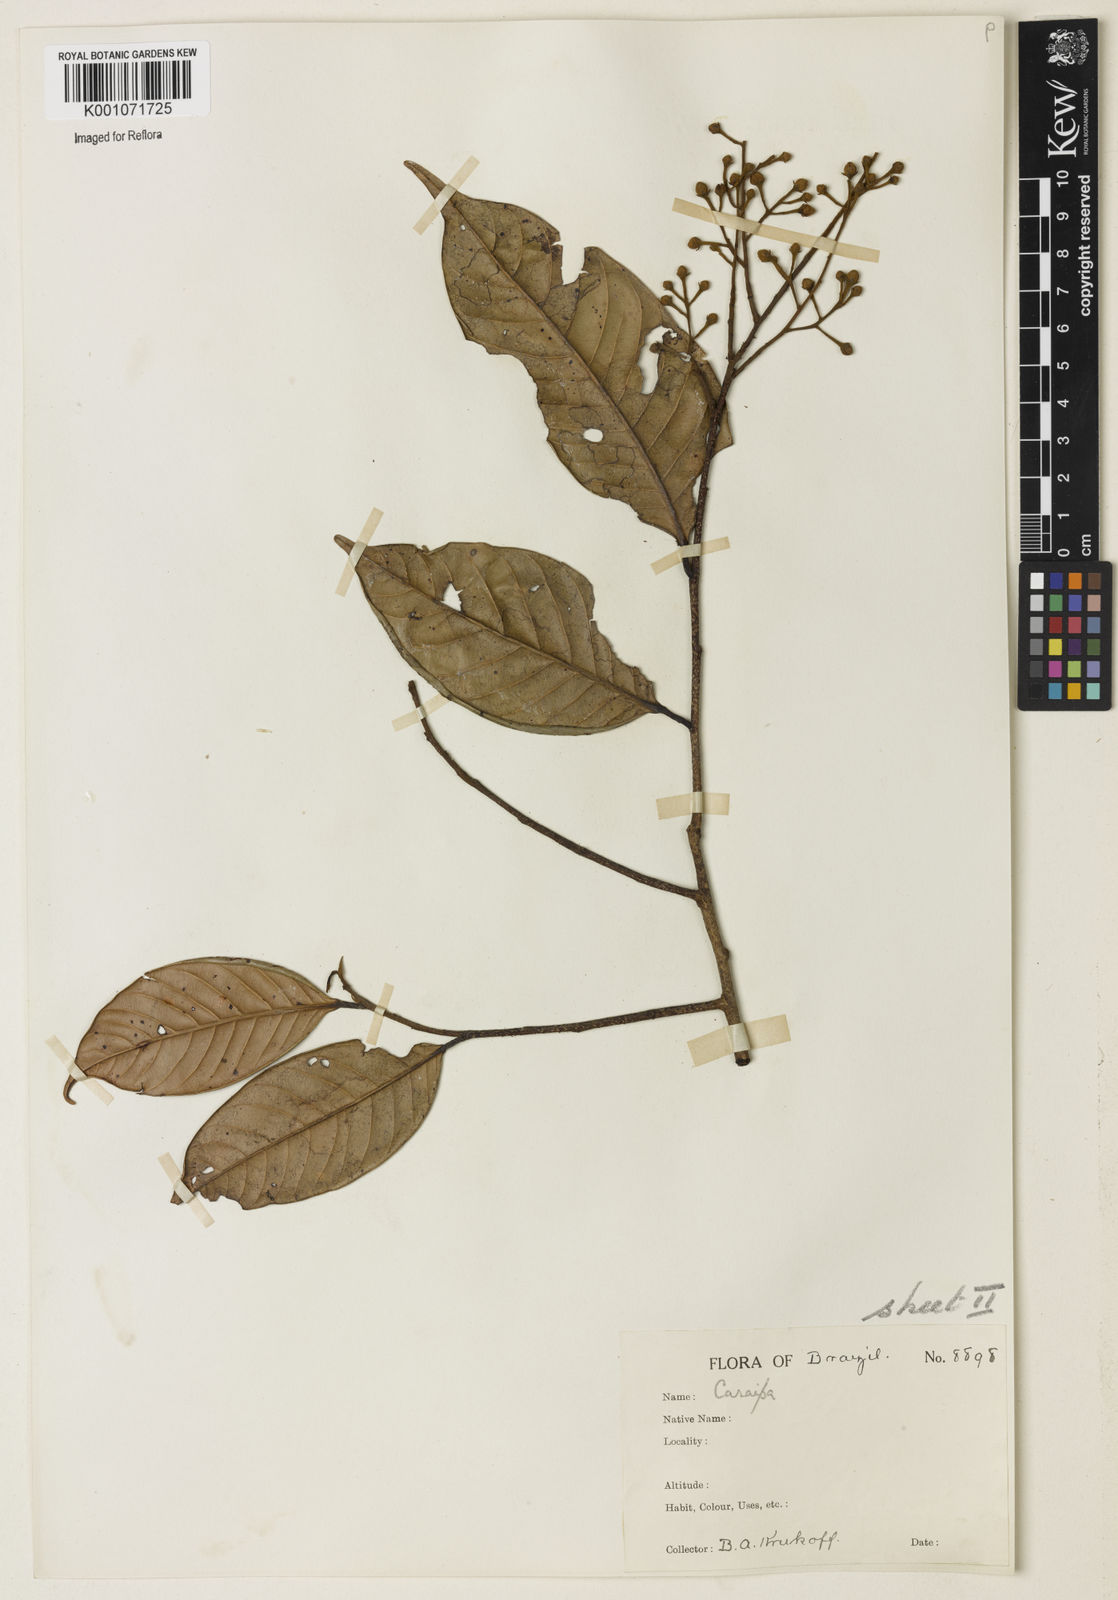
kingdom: Plantae
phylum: Tracheophyta
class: Magnoliopsida
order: Malpighiales
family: Calophyllaceae
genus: Caraipa
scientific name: Caraipa densifolia
